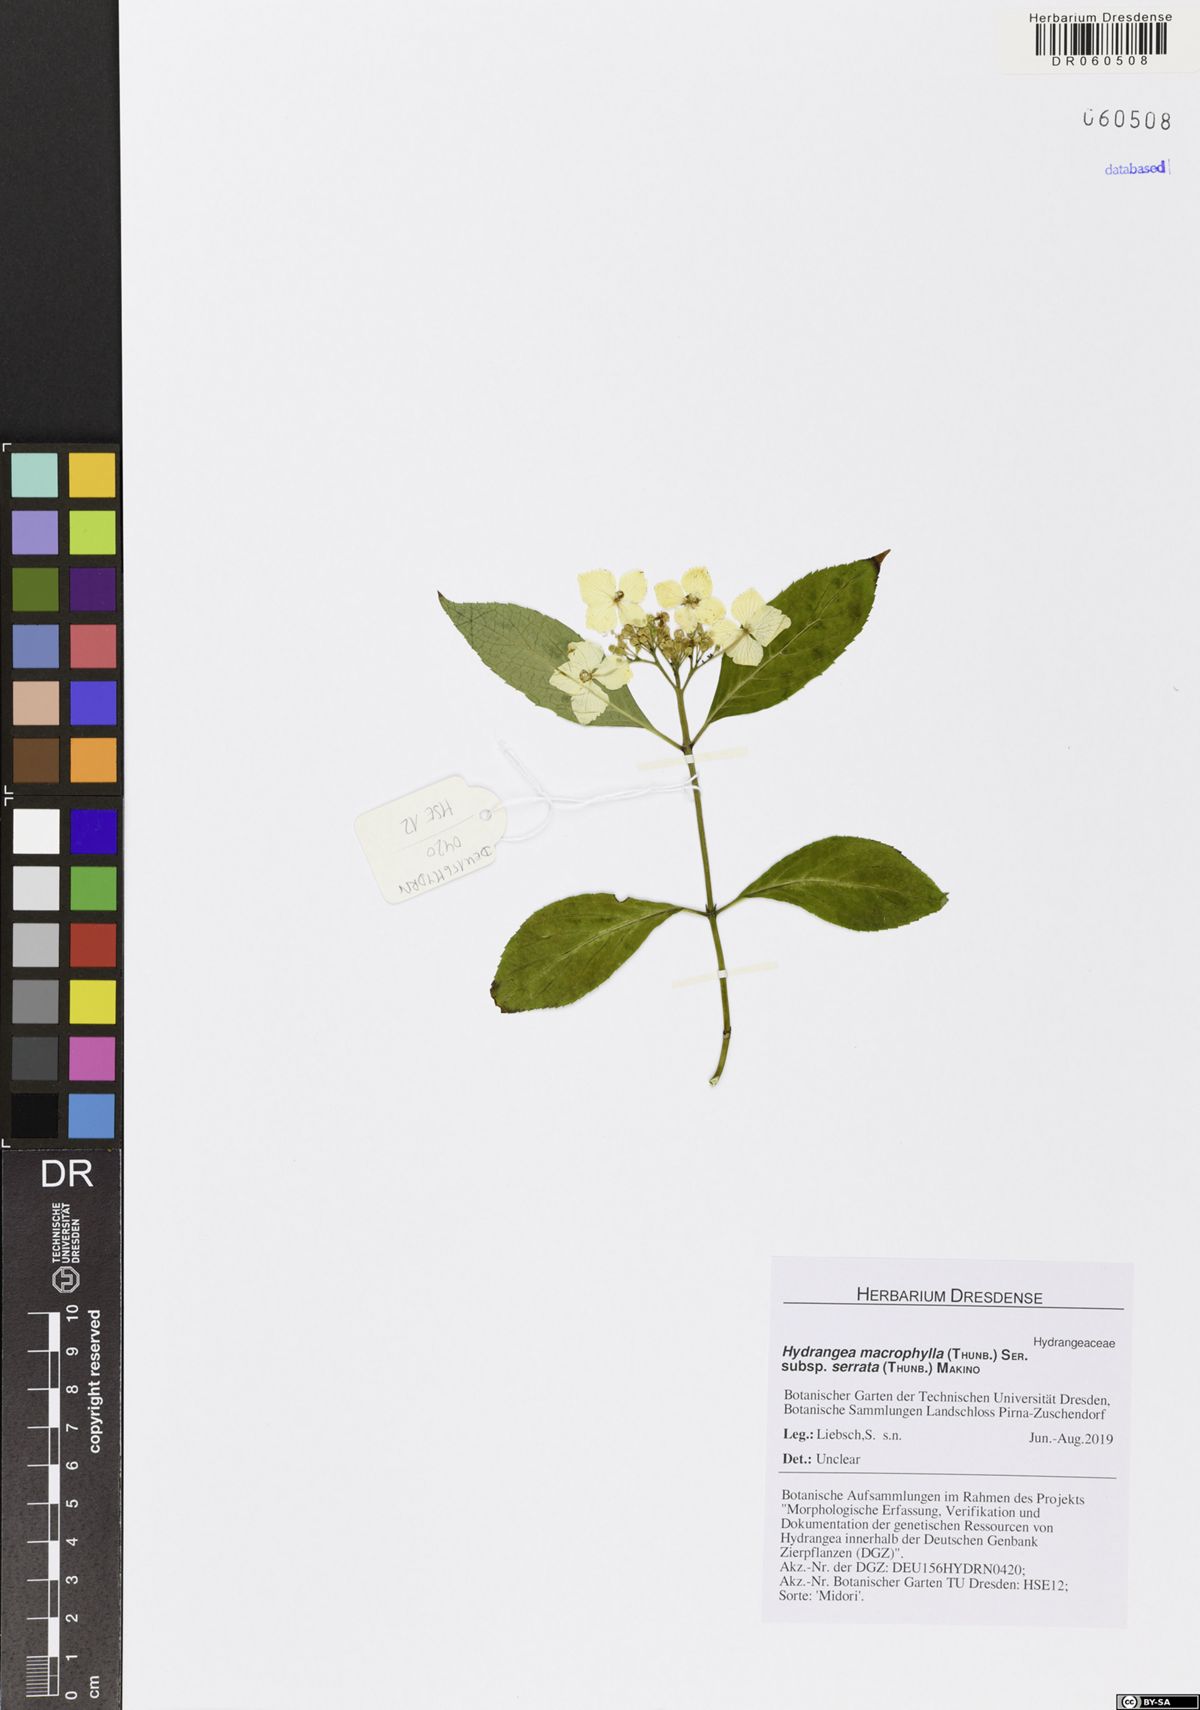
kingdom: Plantae
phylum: Tracheophyta
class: Magnoliopsida
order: Cornales
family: Hydrangeaceae
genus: Hydrangea
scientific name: Hydrangea serrata
